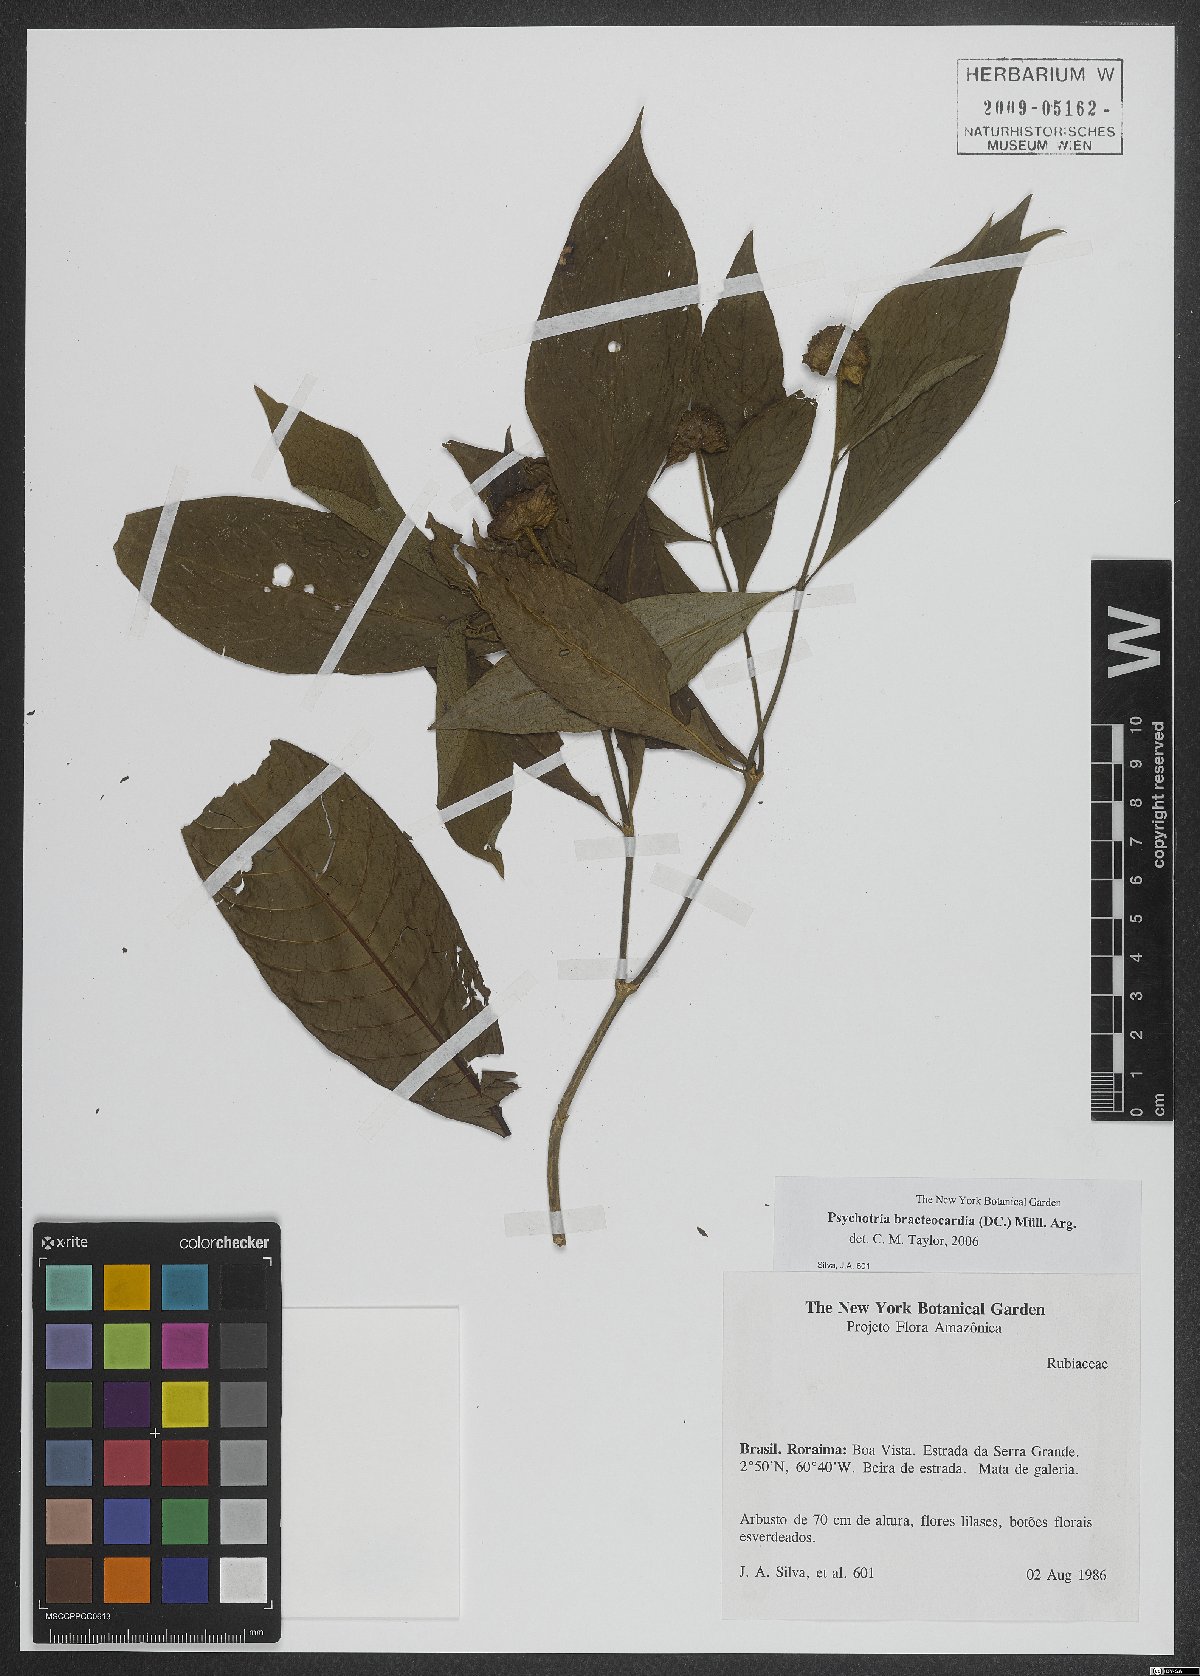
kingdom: Plantae
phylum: Tracheophyta
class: Magnoliopsida
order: Gentianales
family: Rubiaceae
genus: Palicourea
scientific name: Palicourea bracteocardia
